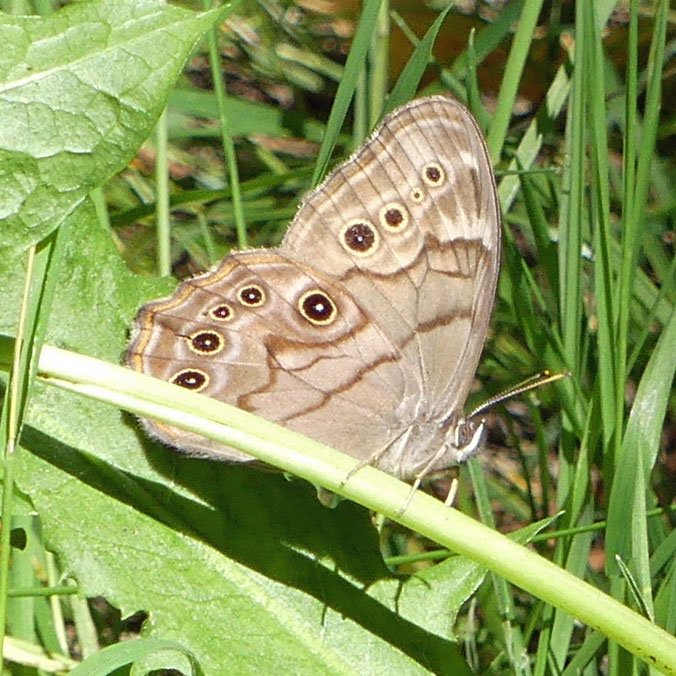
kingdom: Animalia
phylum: Arthropoda
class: Insecta
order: Lepidoptera
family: Nymphalidae
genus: Lethe
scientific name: Lethe anthedon
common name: Northern Pearly-Eye
